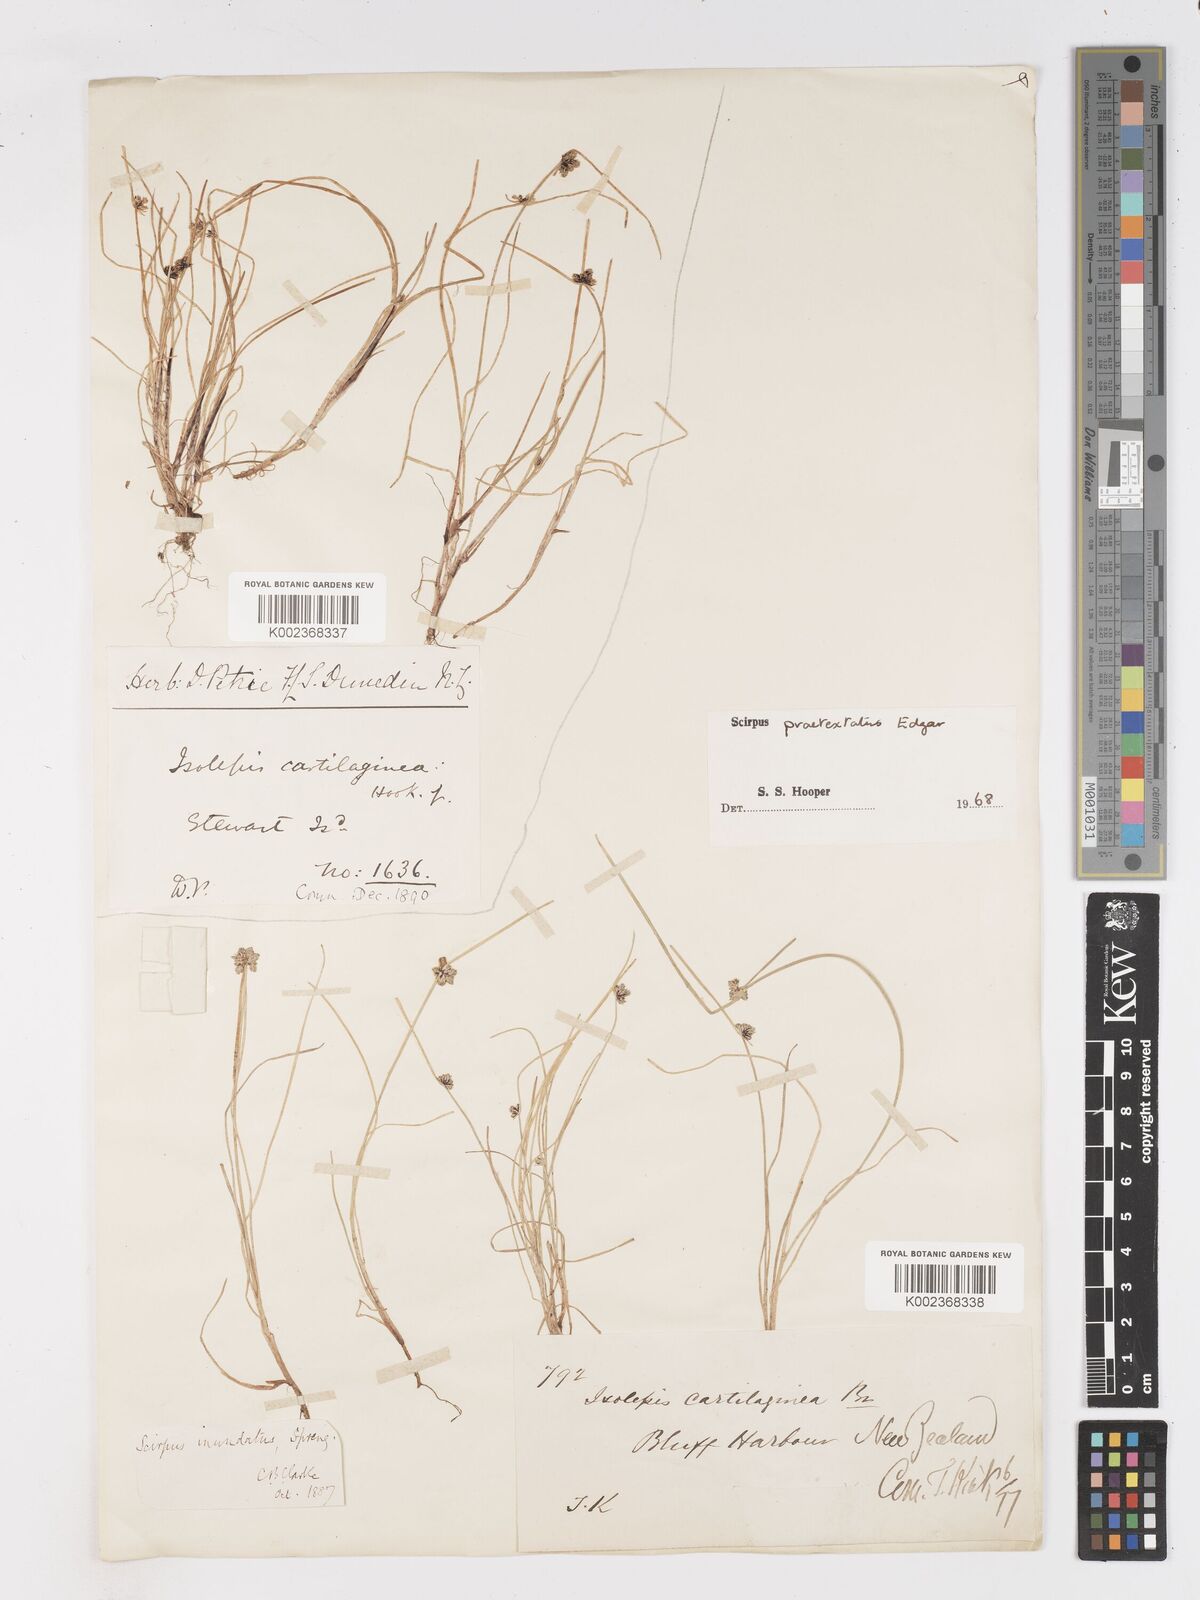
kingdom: Plantae
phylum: Tracheophyta
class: Liliopsida
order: Poales
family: Cyperaceae
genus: Isolepis
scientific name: Isolepis praetextata
